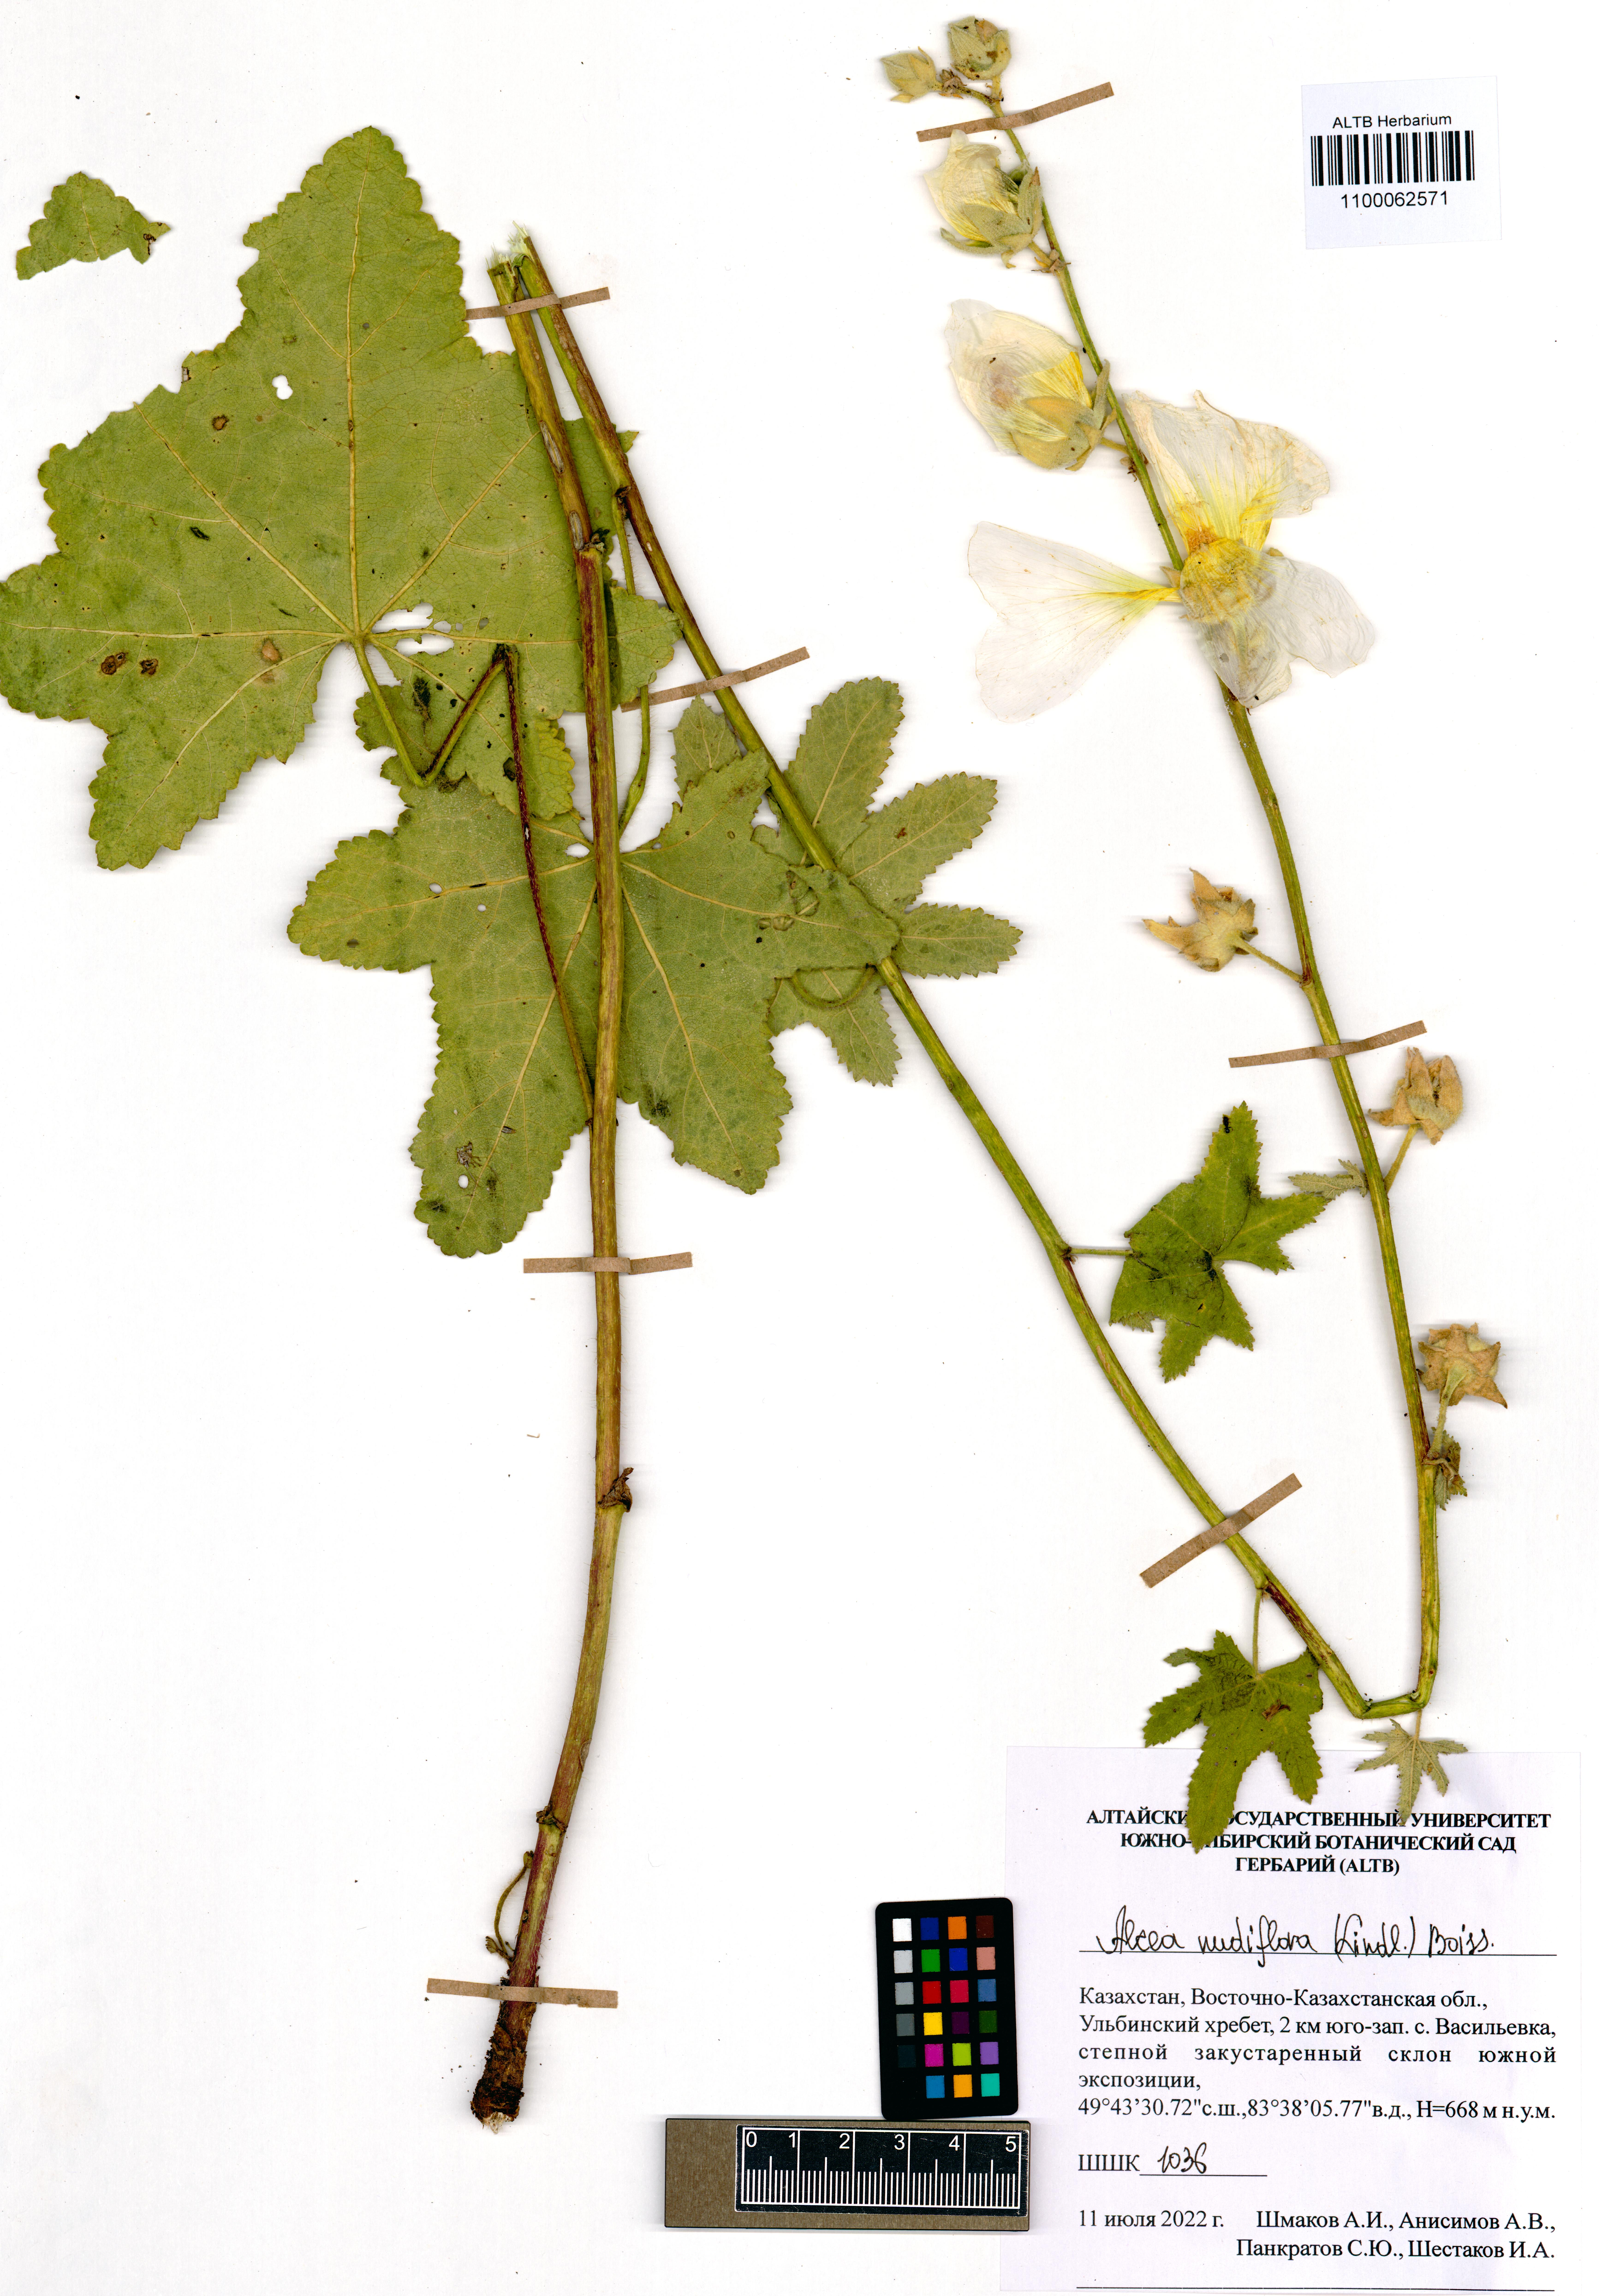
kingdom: Plantae
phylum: Tracheophyta
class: Magnoliopsida
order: Malvales
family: Malvaceae
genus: Alcea
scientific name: Alcea nudiflora
